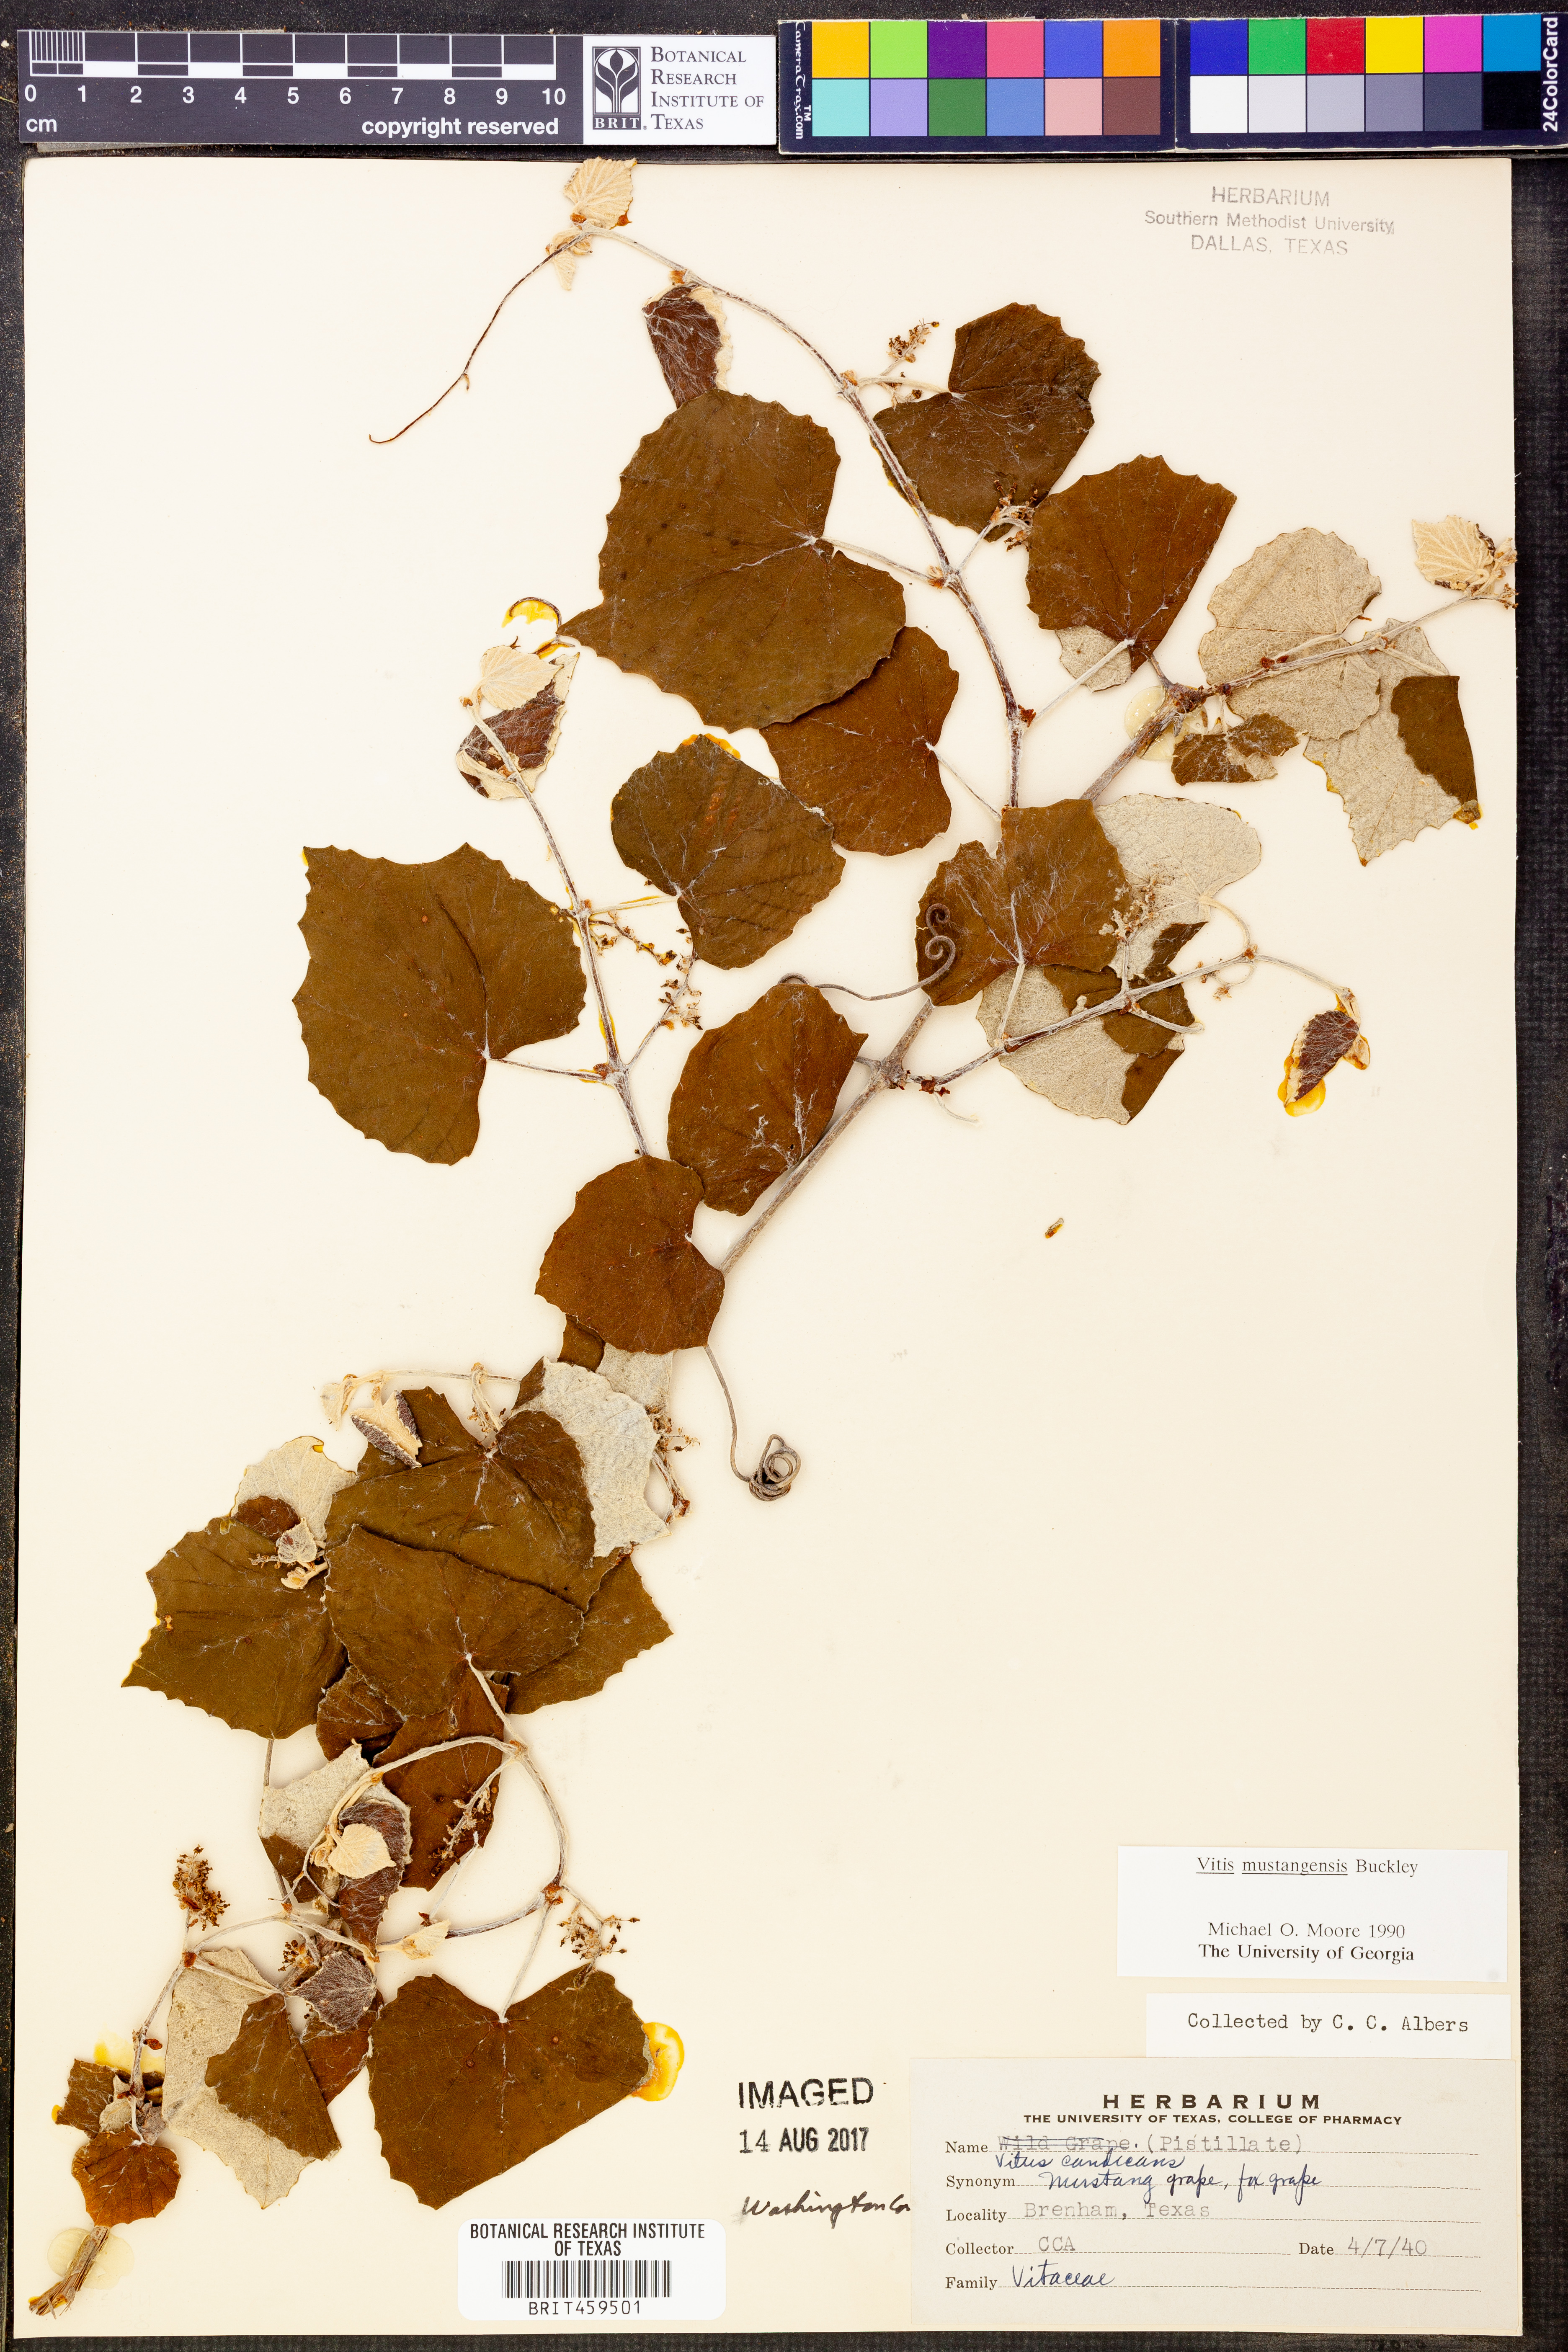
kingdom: Plantae
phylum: Tracheophyta
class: Magnoliopsida
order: Vitales
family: Vitaceae
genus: Vitis
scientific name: Vitis mustangensis
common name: Mustang grape
